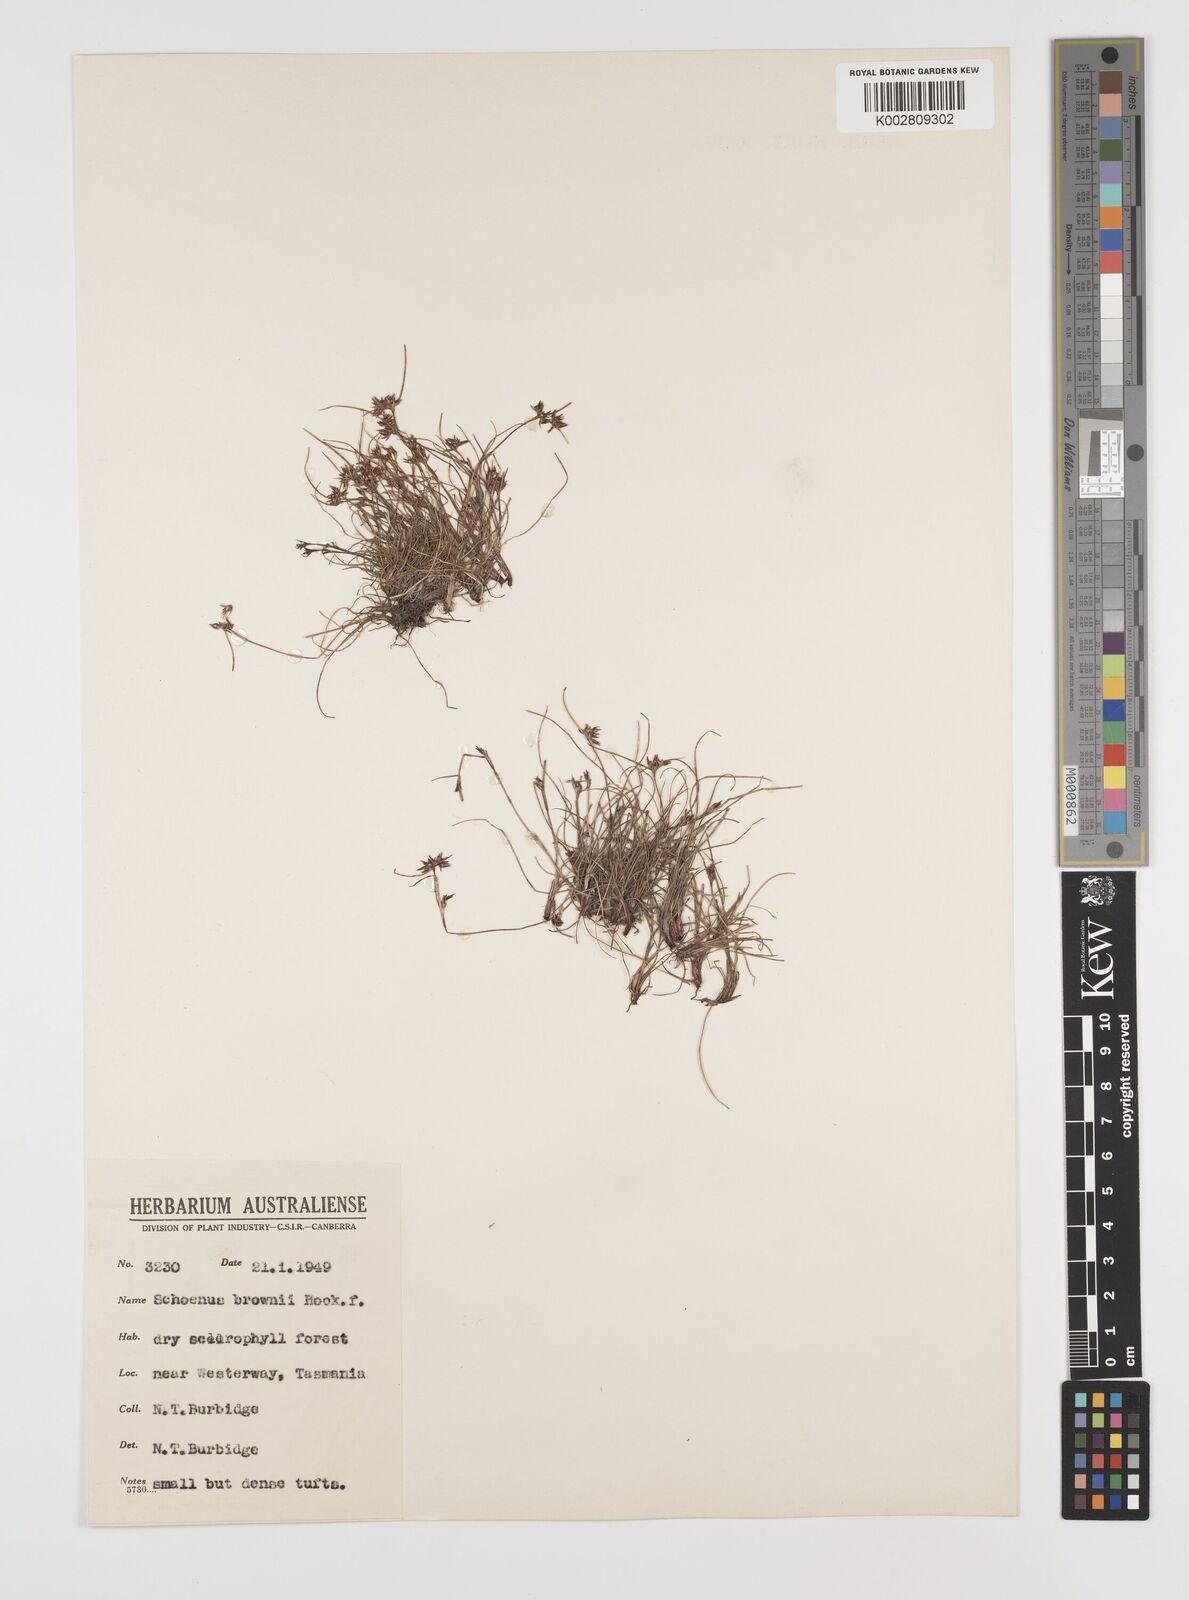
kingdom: Plantae
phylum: Tracheophyta
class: Liliopsida
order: Poales
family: Cyperaceae
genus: Schoenus
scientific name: Schoenus apogon
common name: Smooth bogrush
